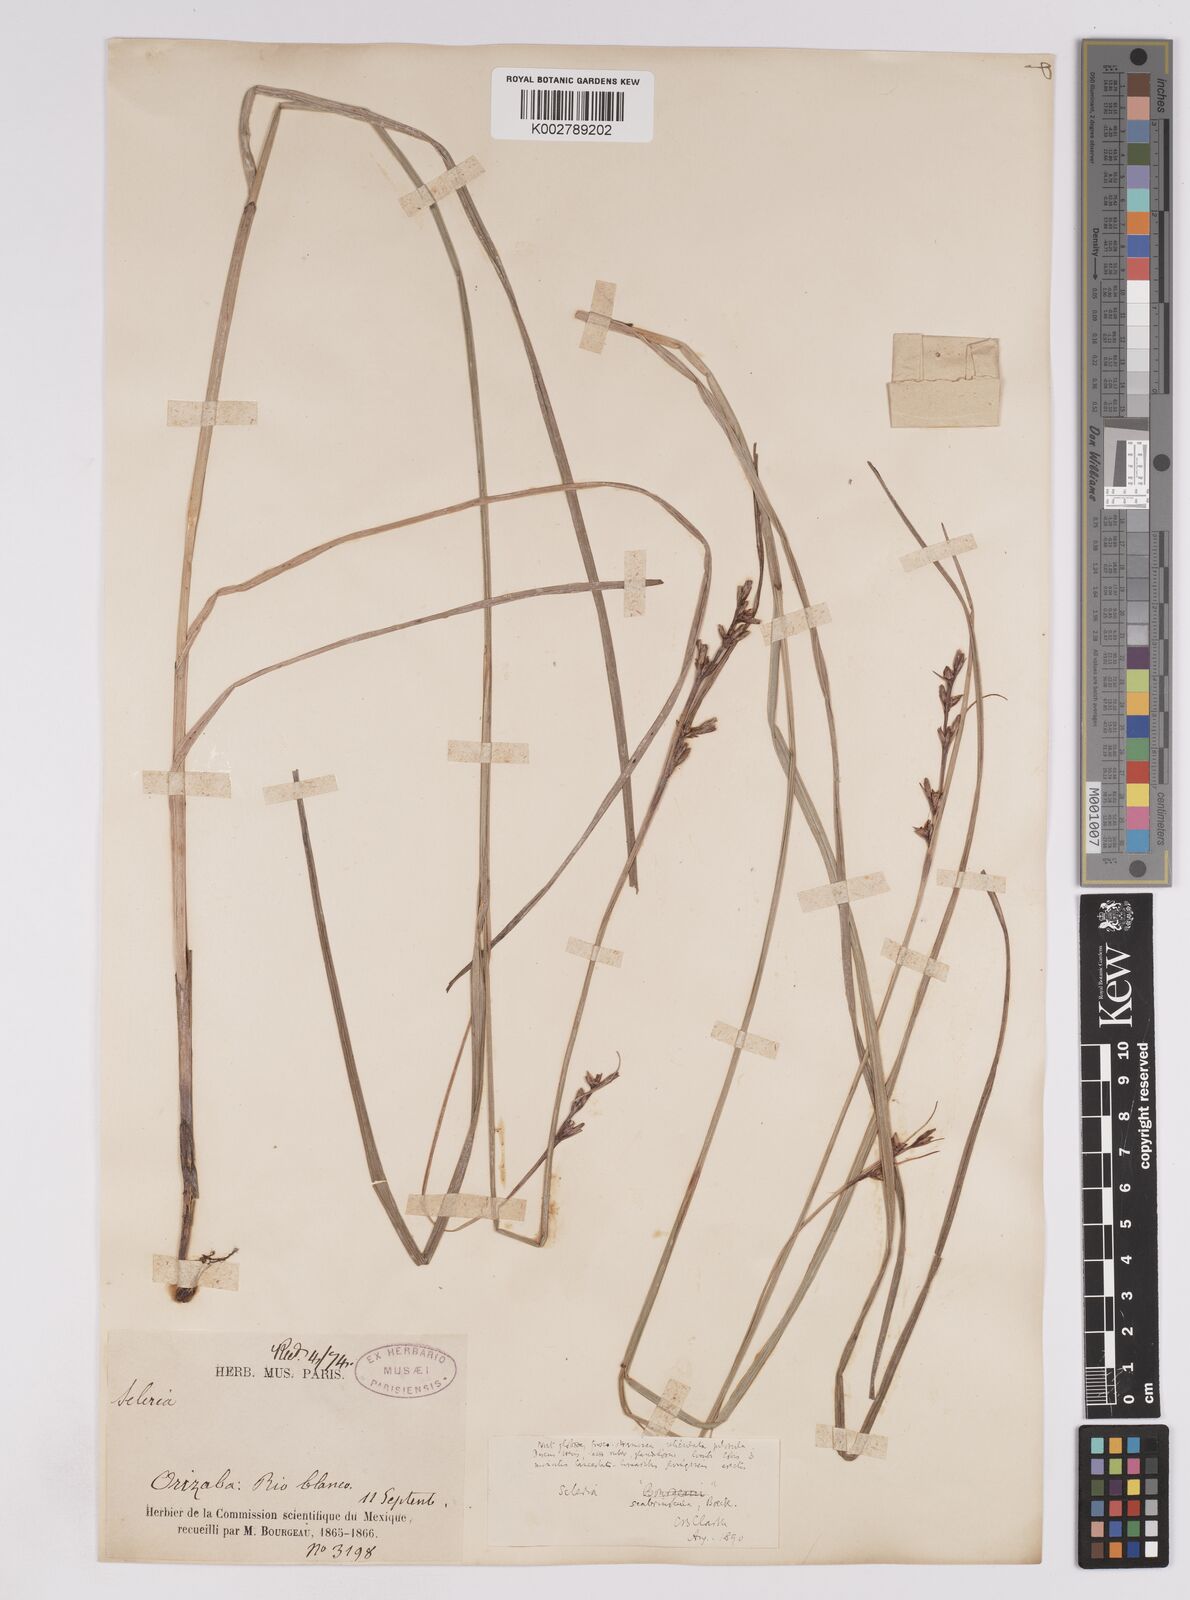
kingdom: Plantae
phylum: Tracheophyta
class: Liliopsida
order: Poales
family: Cyperaceae
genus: Scleria
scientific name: Scleria scabriuscula
